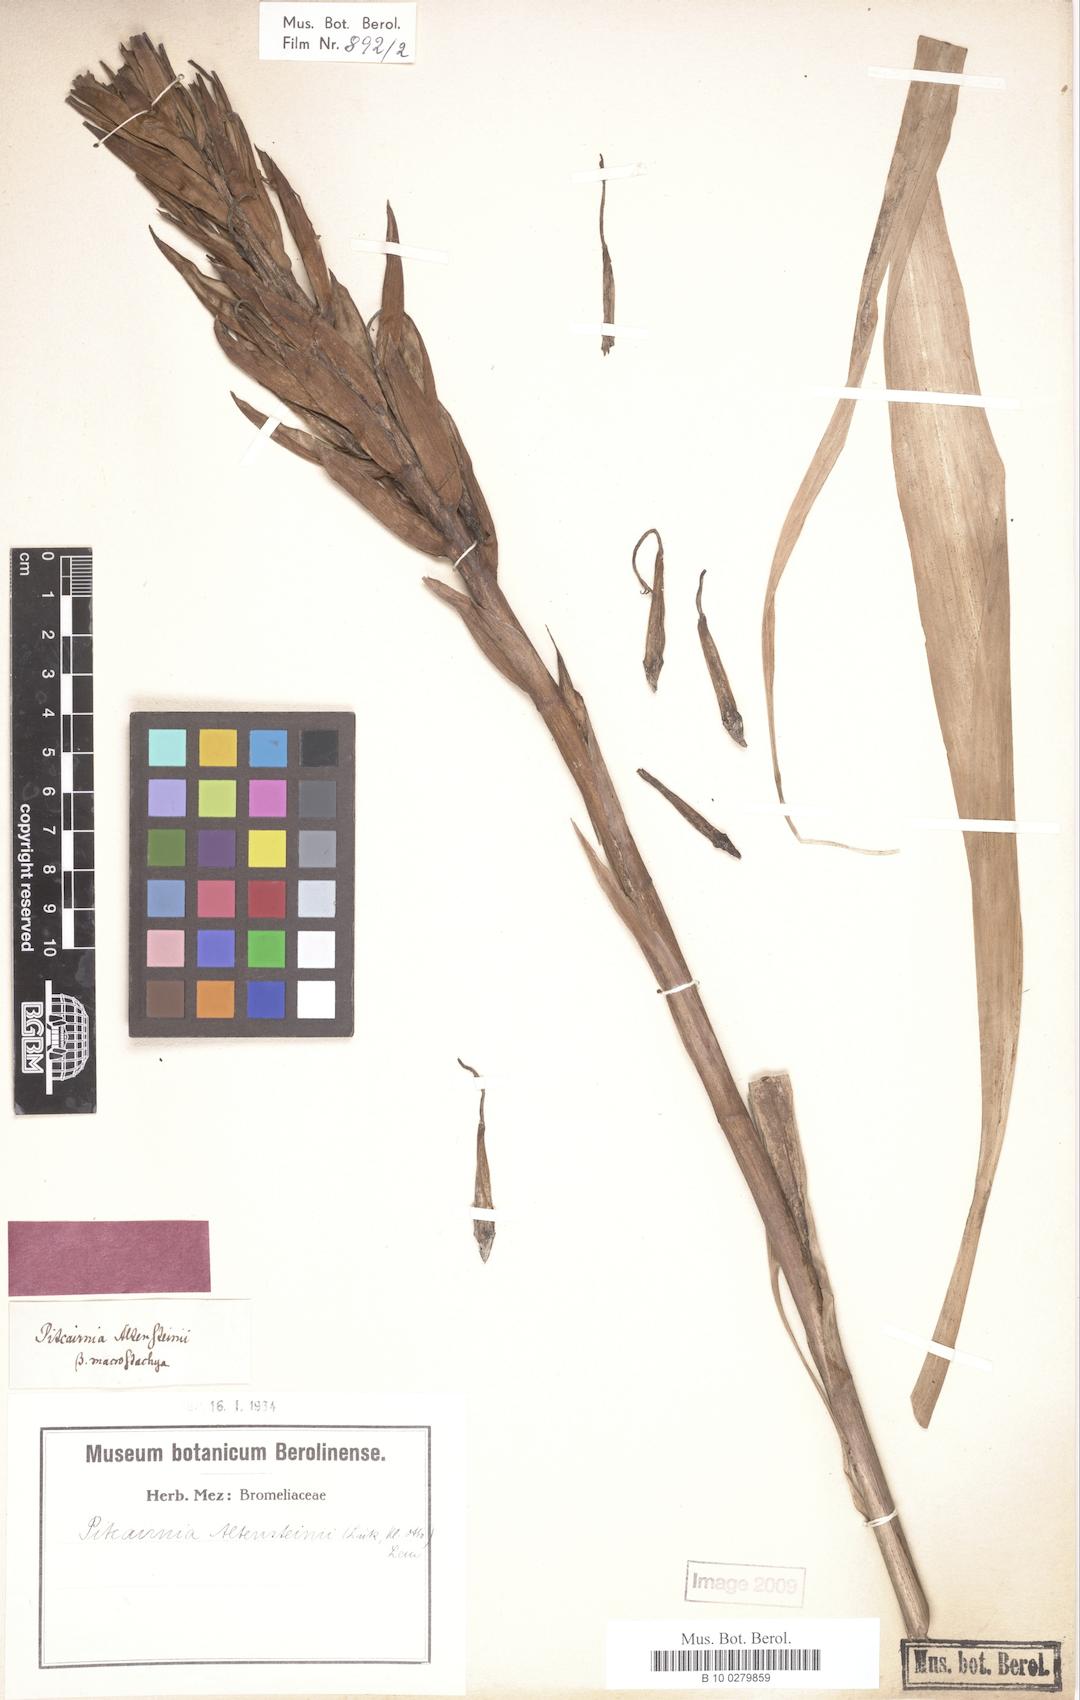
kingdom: Plantae
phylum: Tracheophyta
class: Liliopsida
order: Poales
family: Bromeliaceae
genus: Pitcairnia
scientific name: Pitcairnia altensteinii
